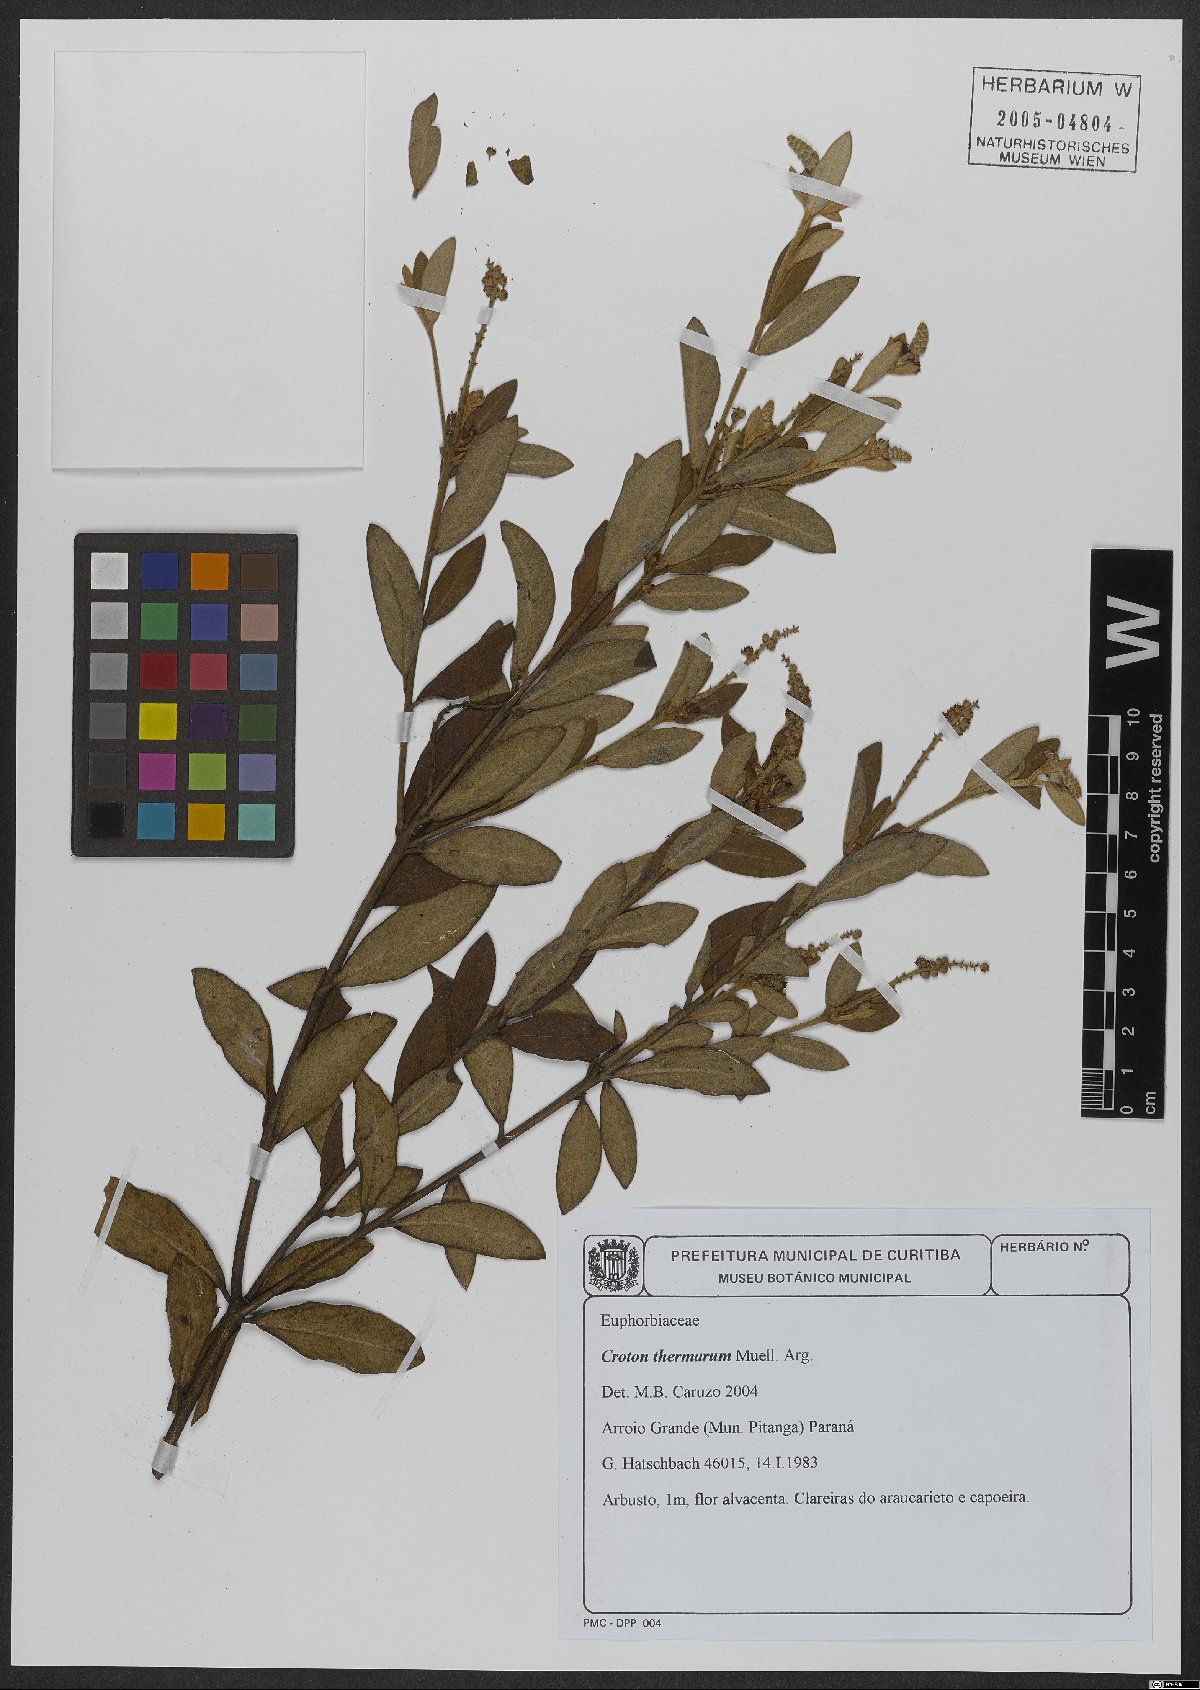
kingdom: Plantae
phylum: Tracheophyta
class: Magnoliopsida
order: Malpighiales
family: Euphorbiaceae
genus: Croton
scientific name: Croton lanatus
